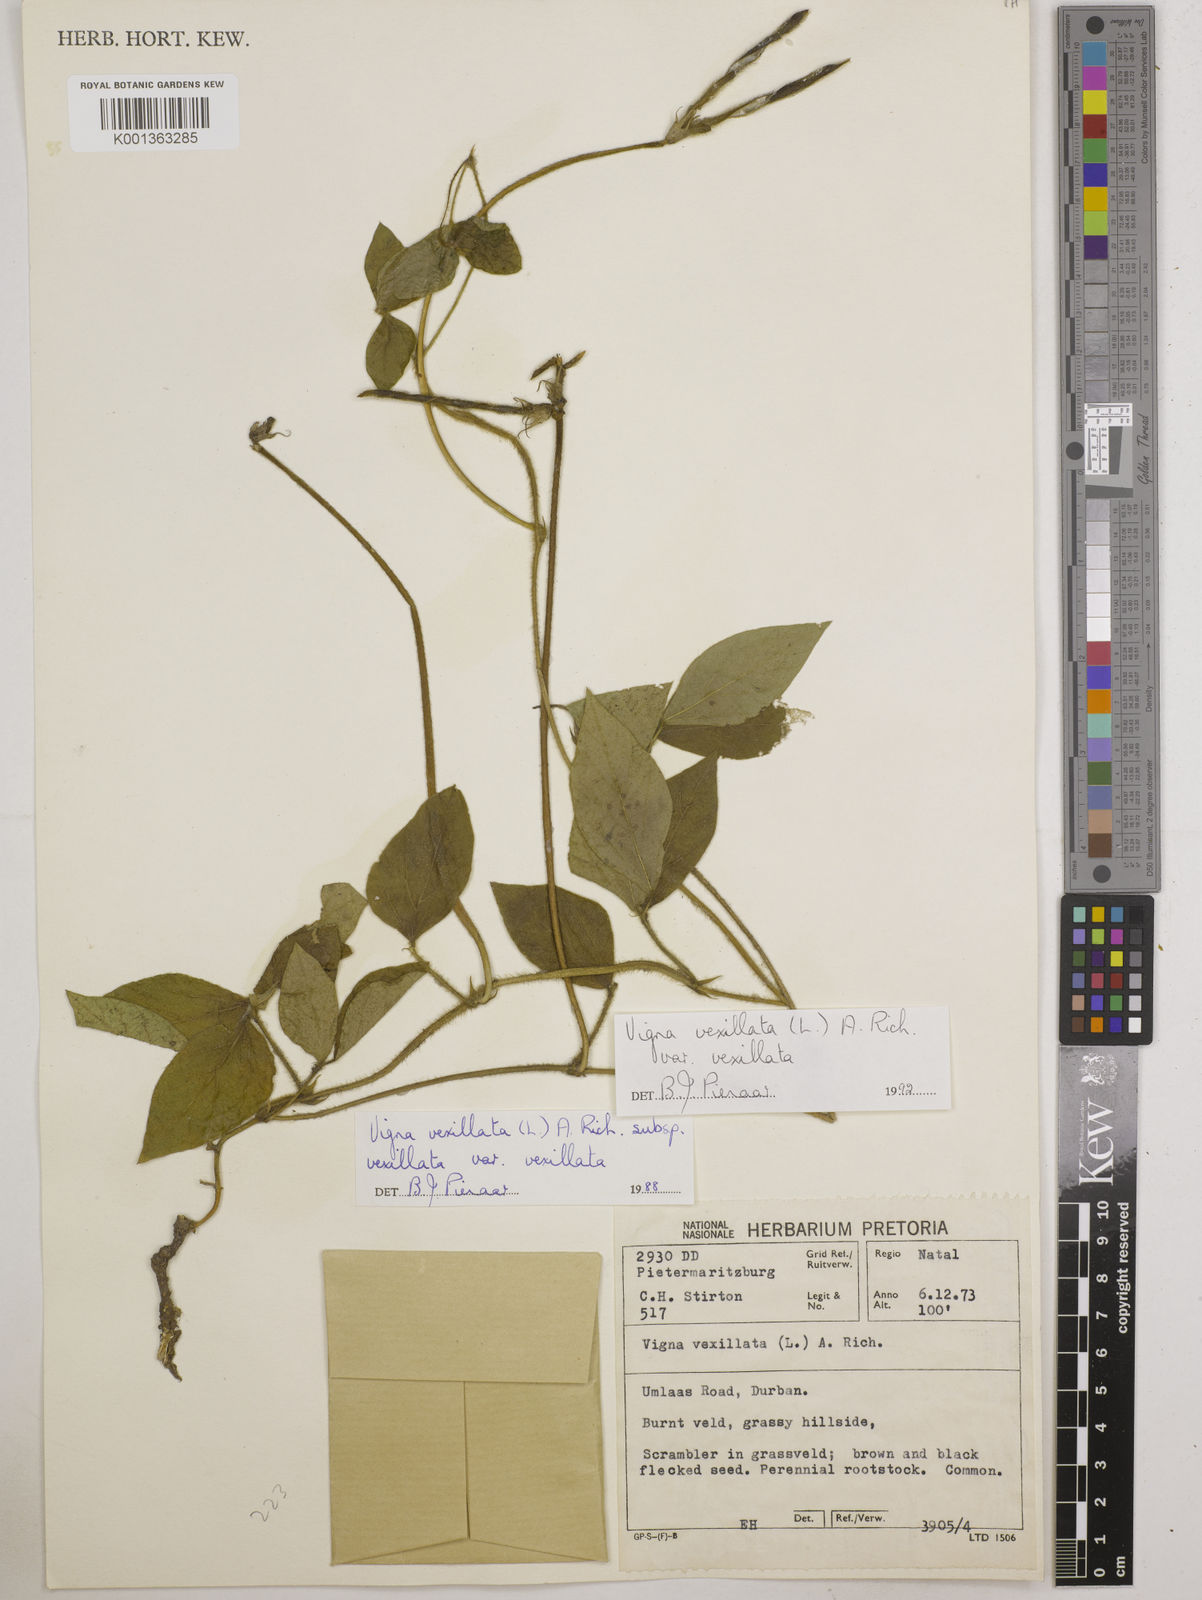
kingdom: Plantae
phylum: Tracheophyta
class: Magnoliopsida
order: Fabales
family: Fabaceae
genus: Vigna
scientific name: Vigna
